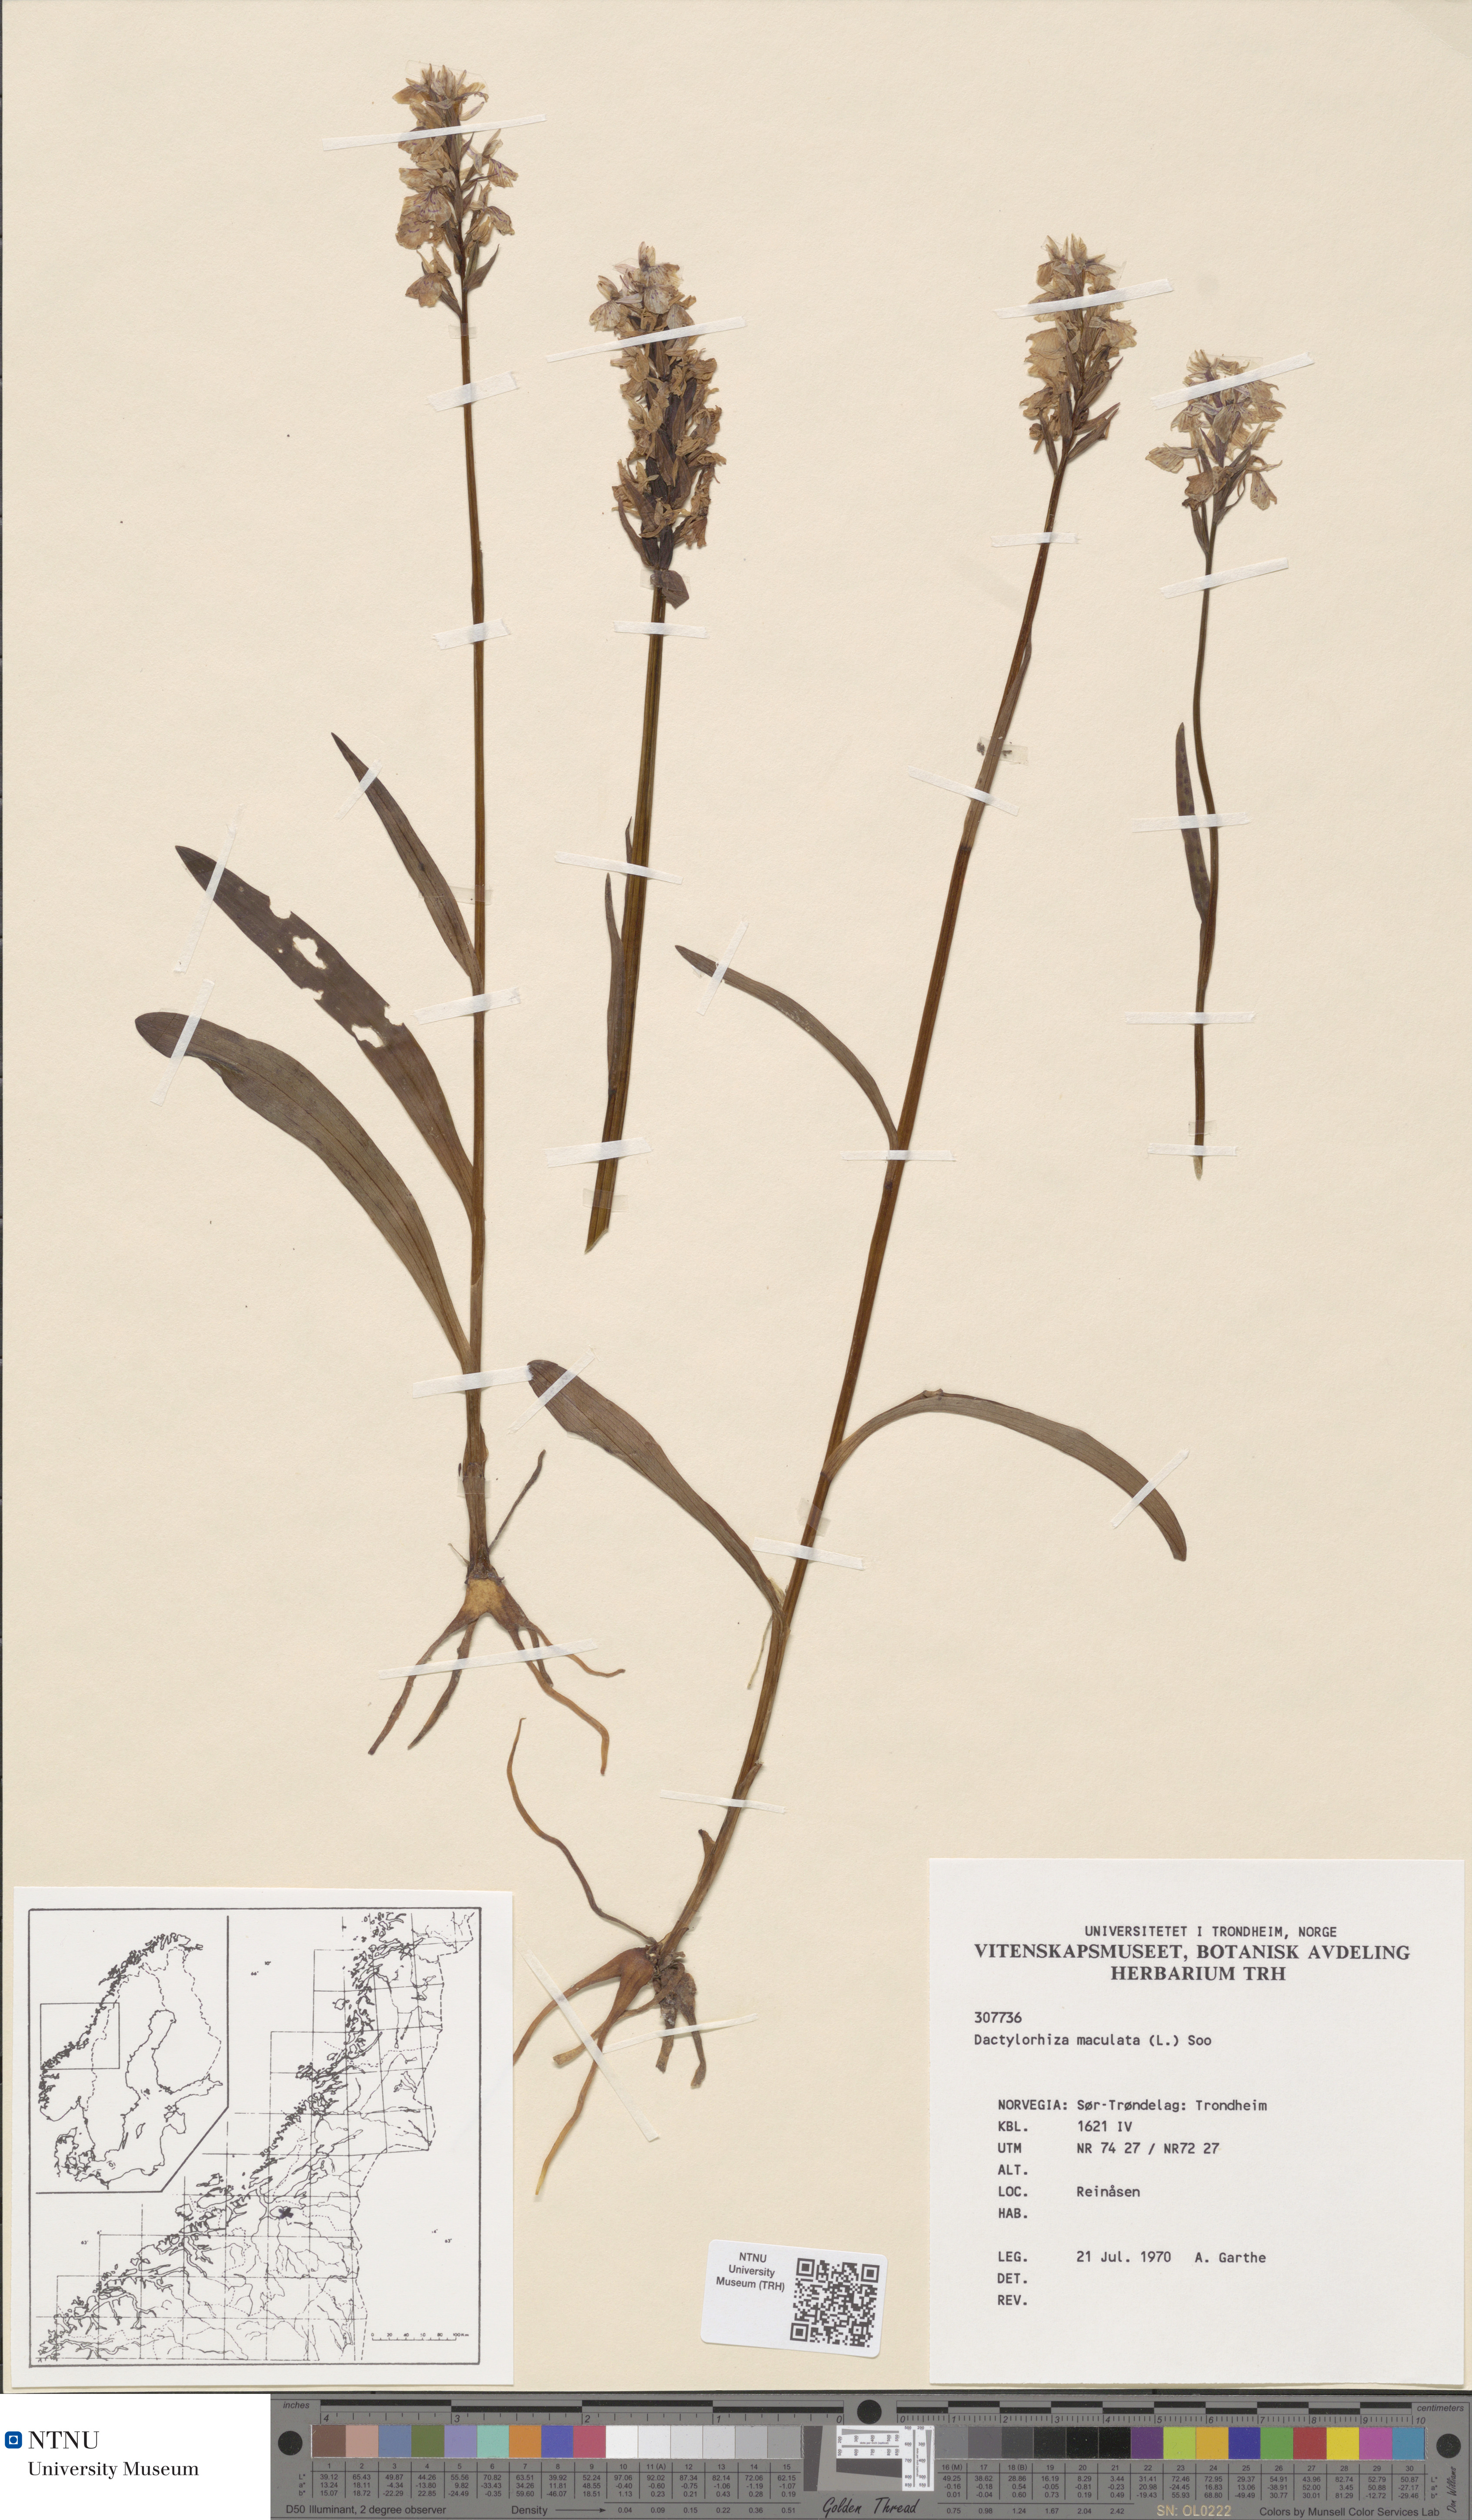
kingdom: Plantae
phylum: Tracheophyta
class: Liliopsida
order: Asparagales
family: Orchidaceae
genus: Dactylorhiza
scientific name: Dactylorhiza maculata
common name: Heath spotted-orchid
